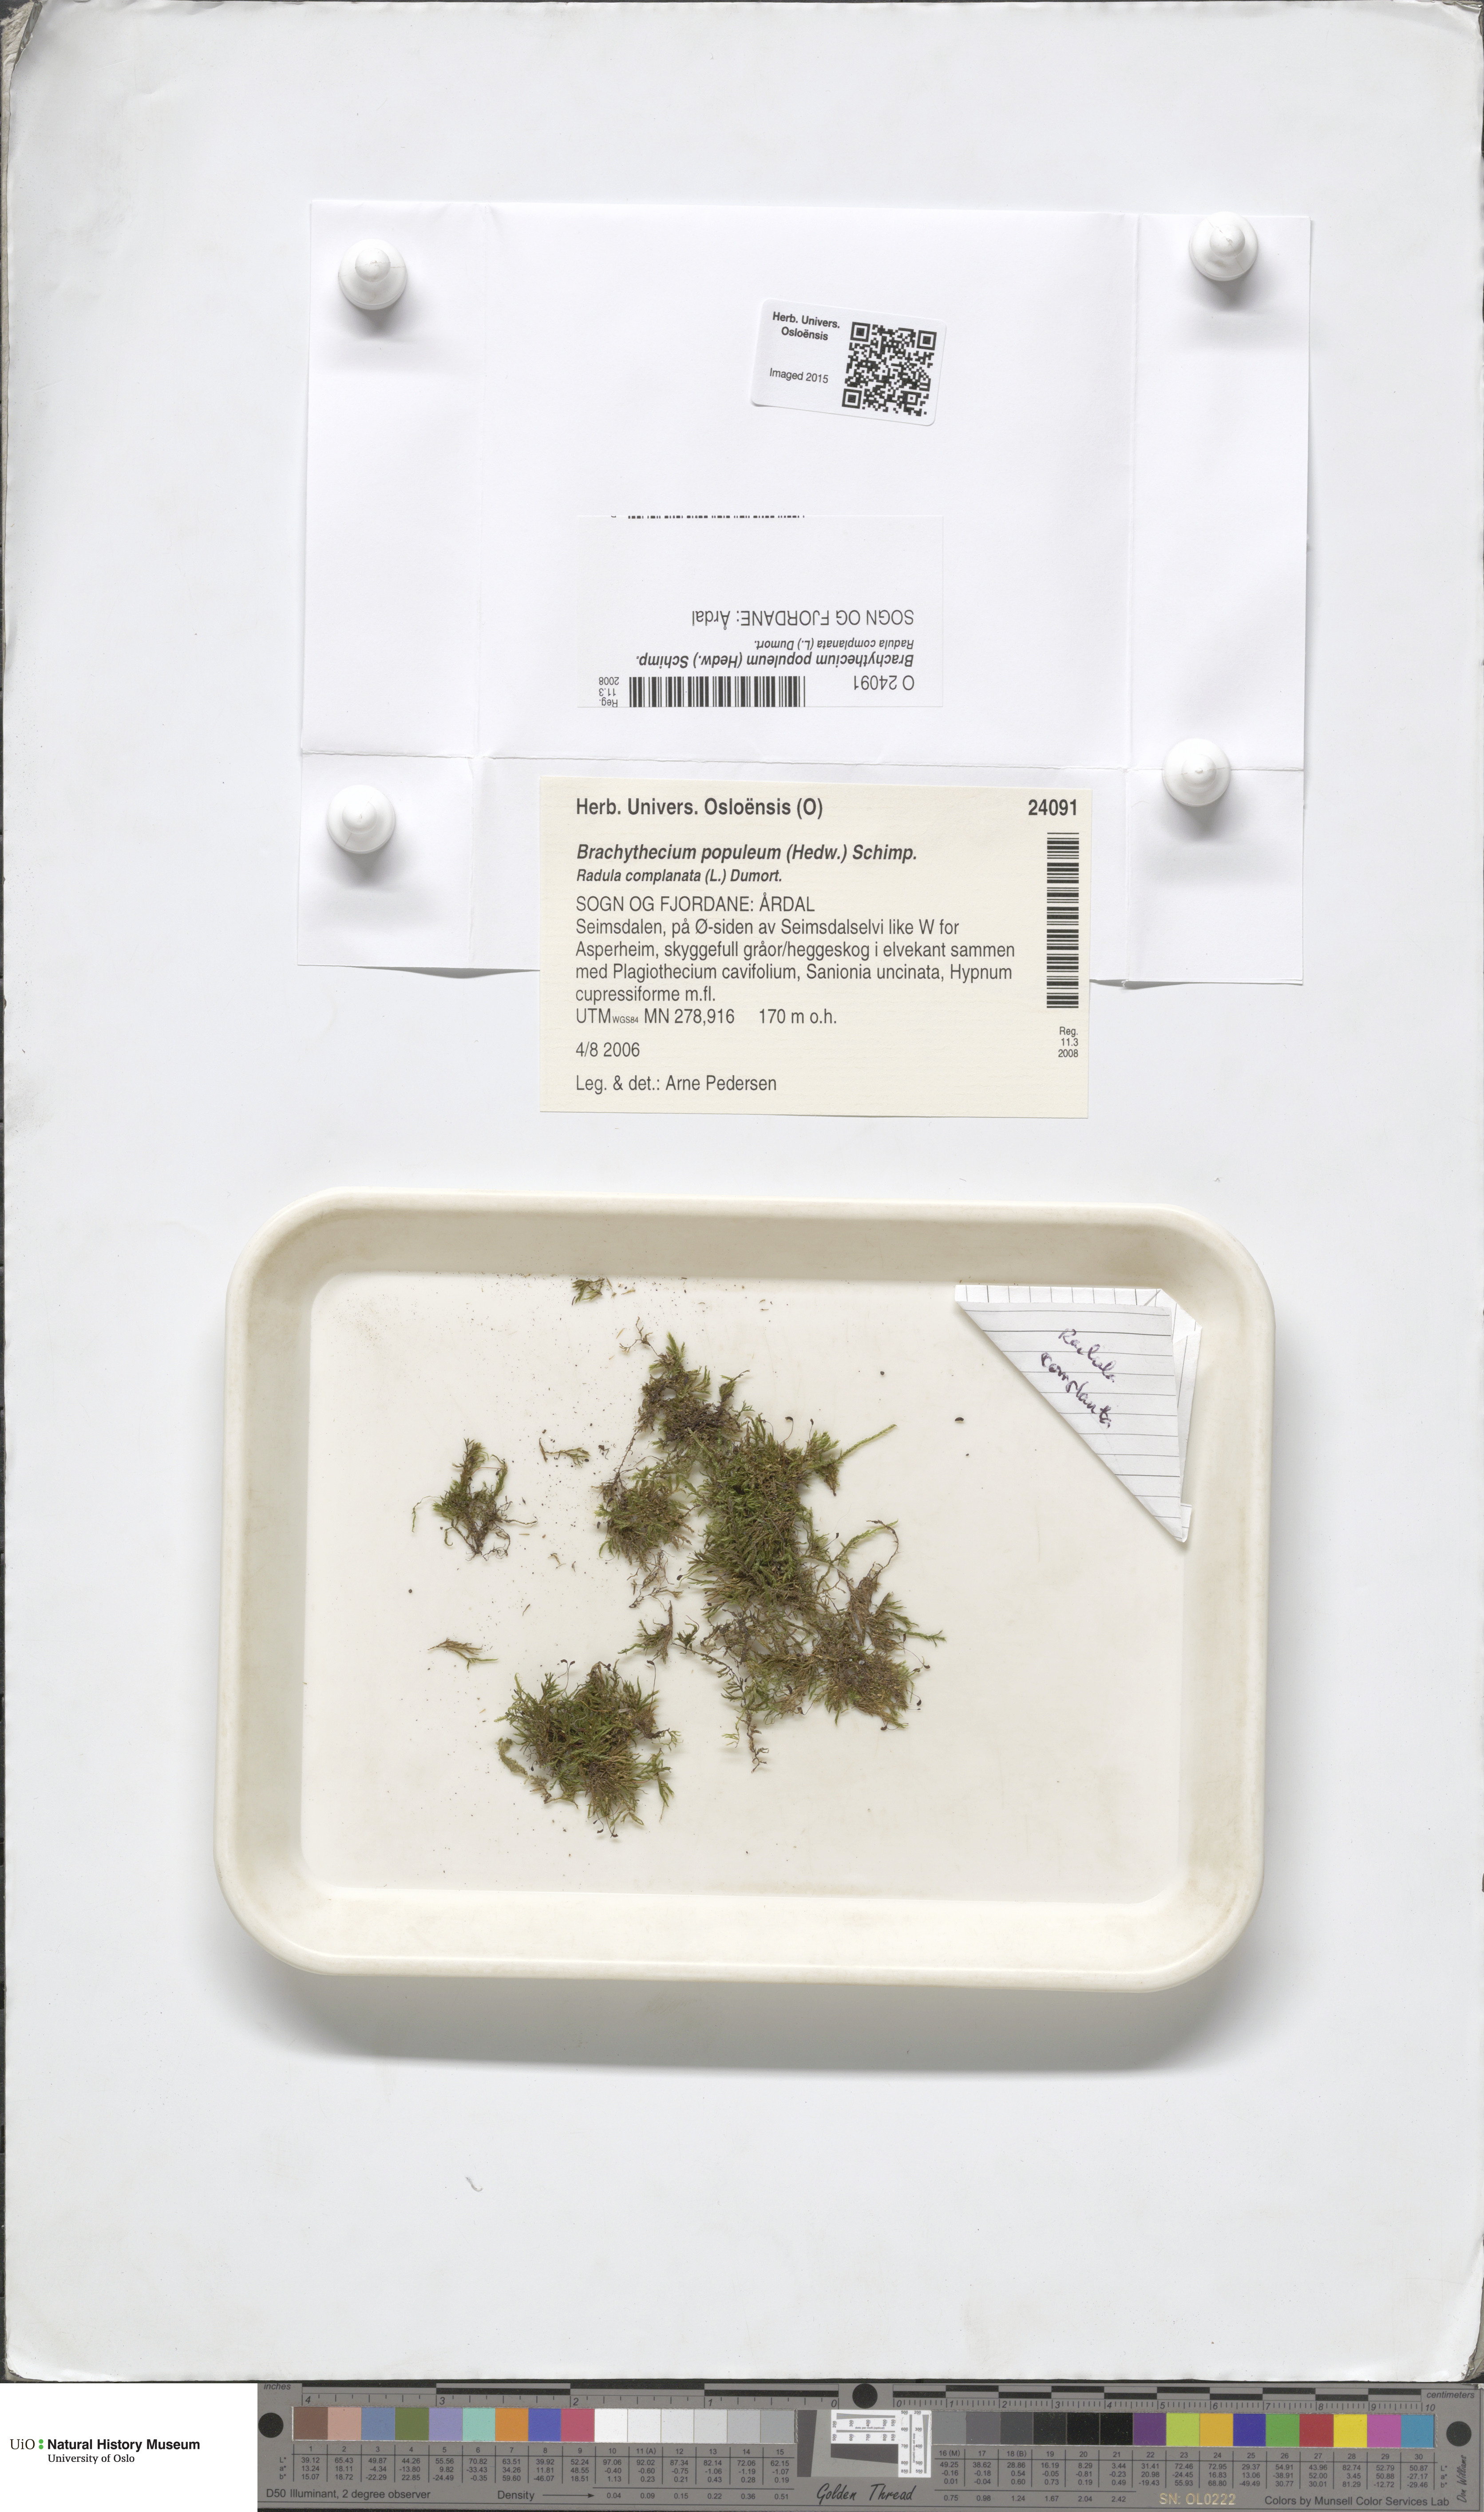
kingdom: Plantae
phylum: Bryophyta
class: Bryopsida
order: Hypnales
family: Brachytheciaceae
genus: Sciuro-hypnum
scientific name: Sciuro-hypnum plumosum
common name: Rusty feather-moss
